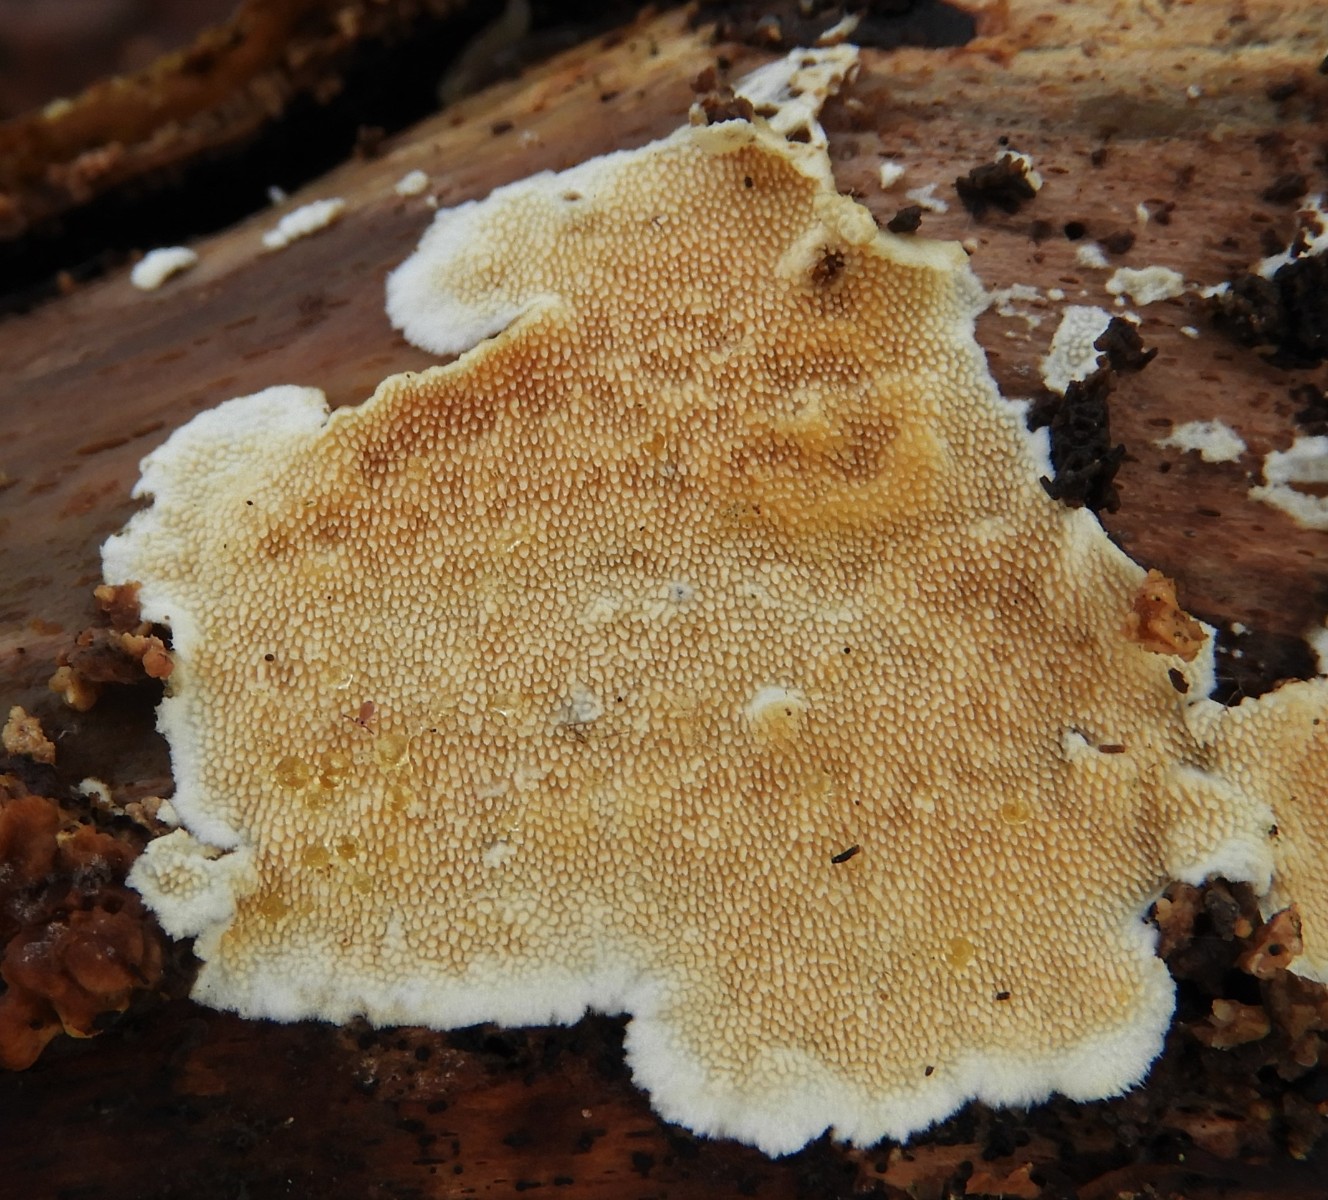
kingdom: Fungi
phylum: Basidiomycota
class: Agaricomycetes
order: Polyporales
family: Steccherinaceae
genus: Steccherinum
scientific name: Steccherinum ochraceum
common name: almindelig skønpig
